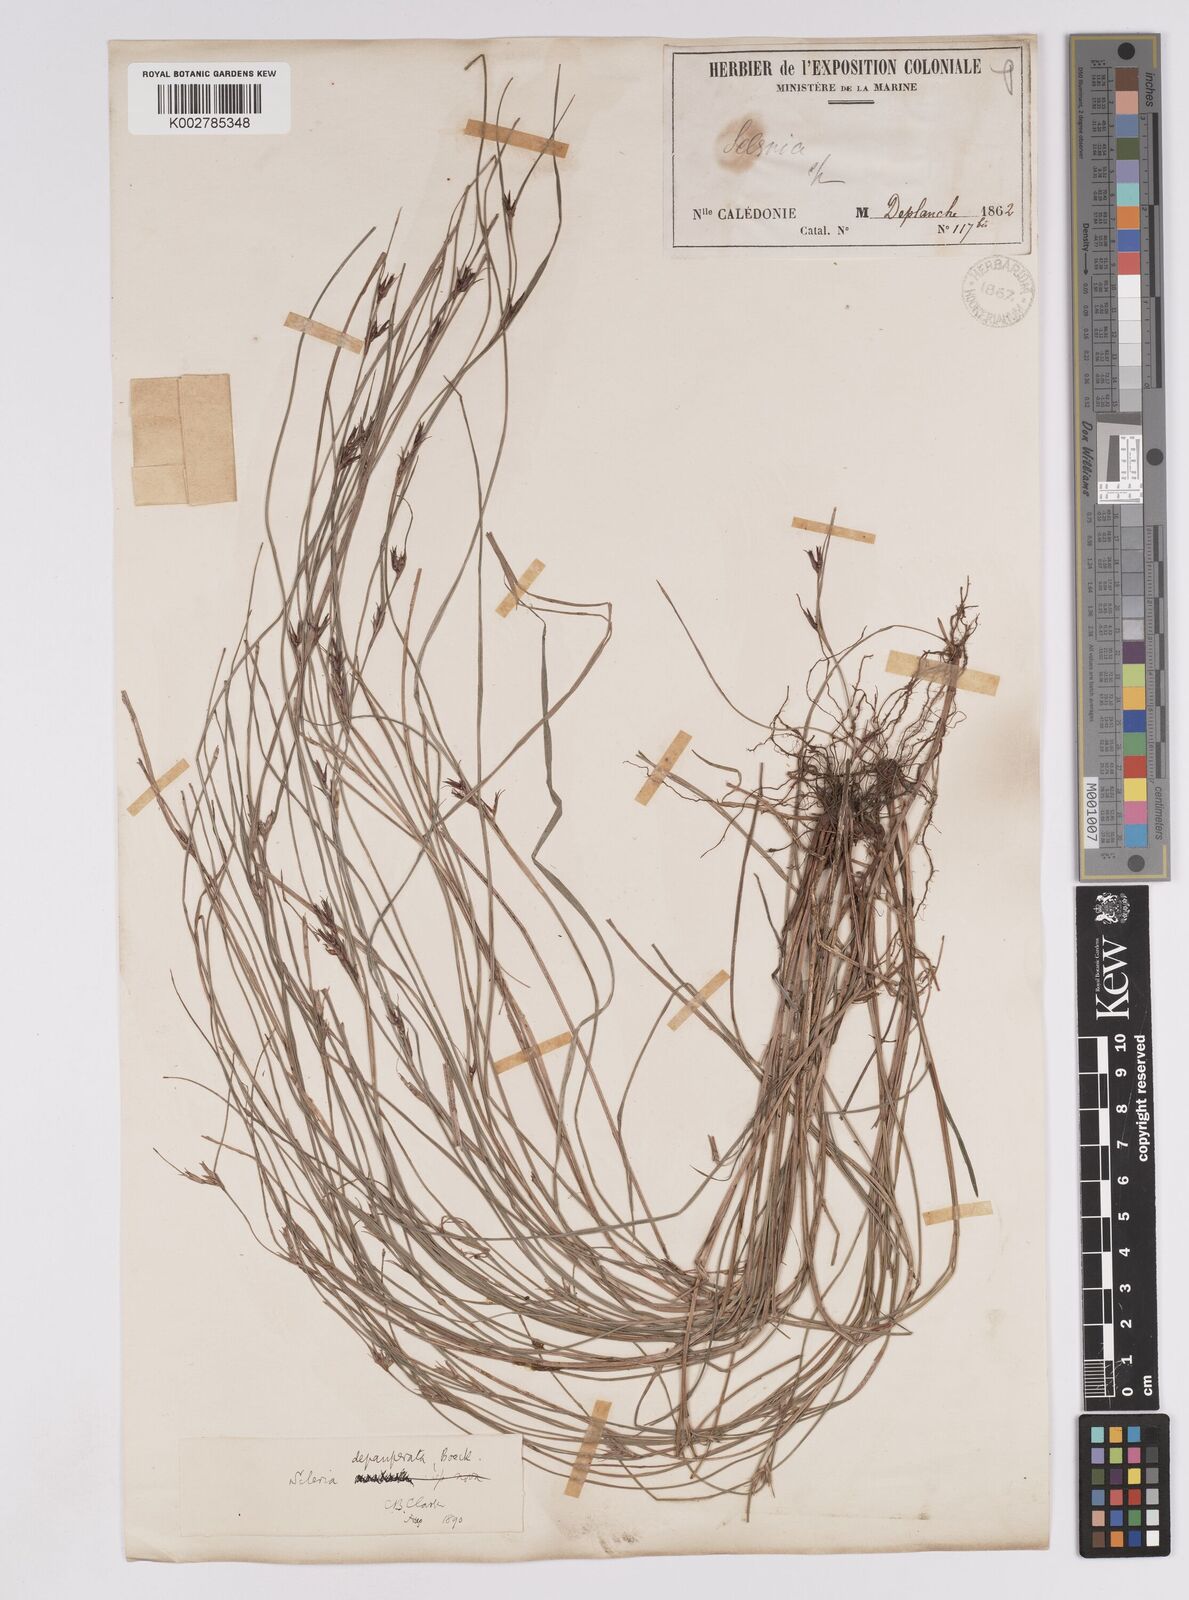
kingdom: Plantae
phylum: Tracheophyta
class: Liliopsida
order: Poales
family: Cyperaceae
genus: Scleria
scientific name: Scleria depauperata
